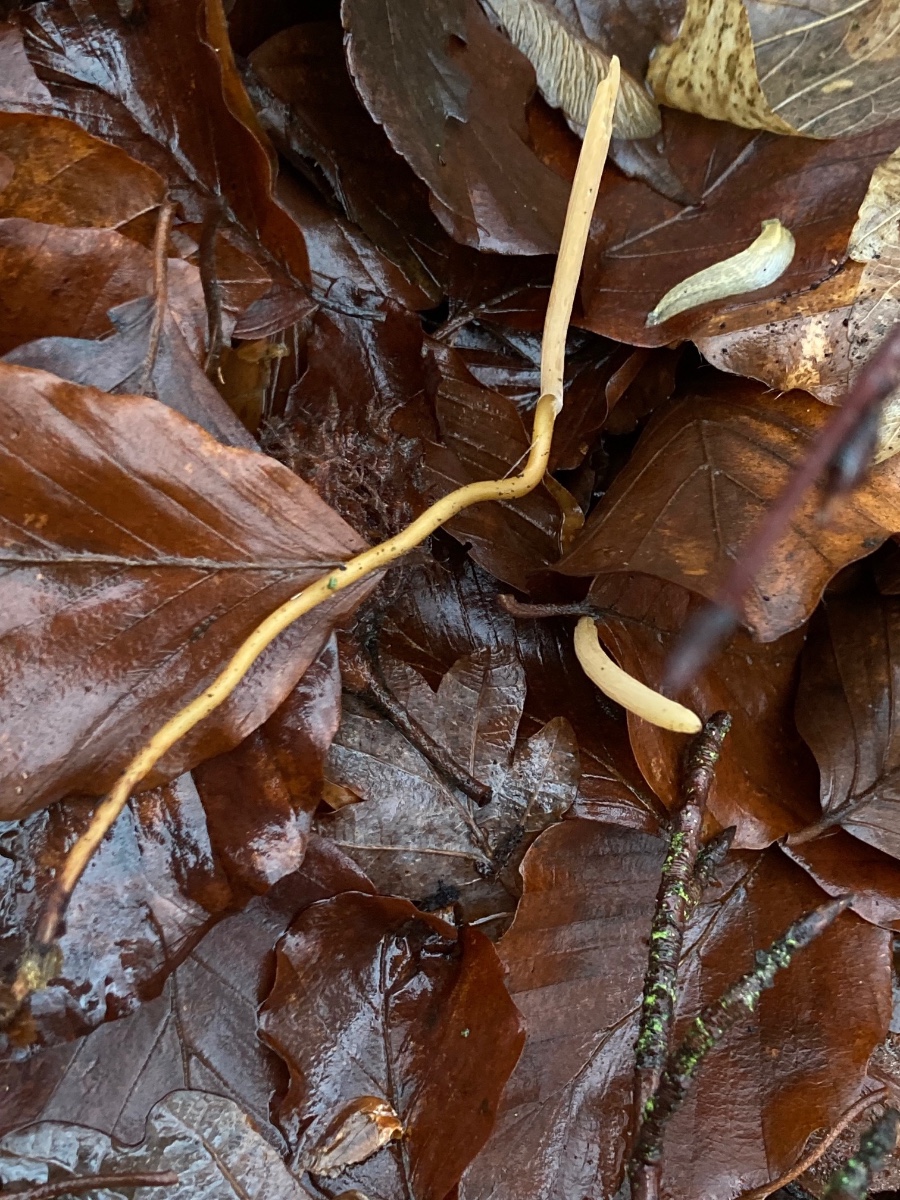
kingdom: Fungi
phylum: Basidiomycota
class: Agaricomycetes
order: Agaricales
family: Typhulaceae
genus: Typhula
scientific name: Typhula fistulosa
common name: pibet rørkølle
